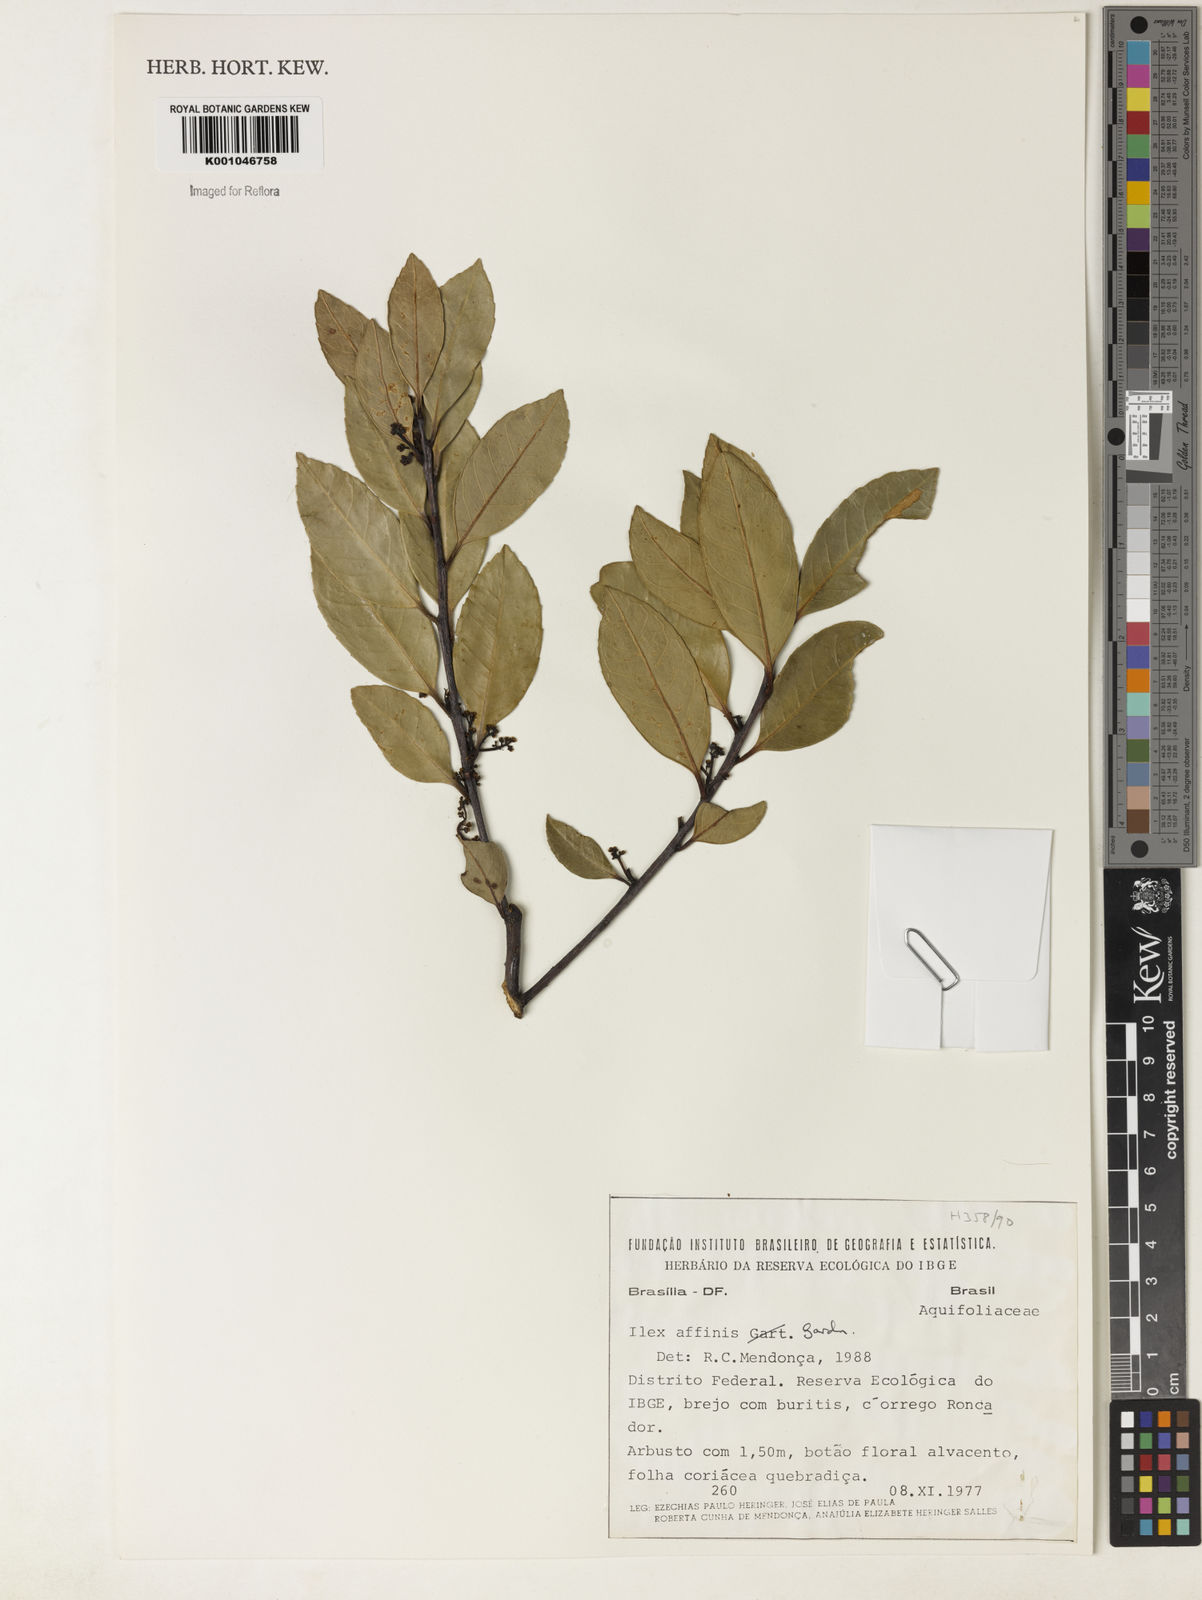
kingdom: Plantae
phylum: Tracheophyta
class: Magnoliopsida
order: Aquifoliales
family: Aquifoliaceae
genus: Ilex
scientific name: Ilex affinis
